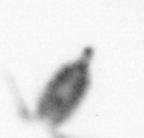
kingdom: Animalia
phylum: Arthropoda
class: Copepoda
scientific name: Copepoda
